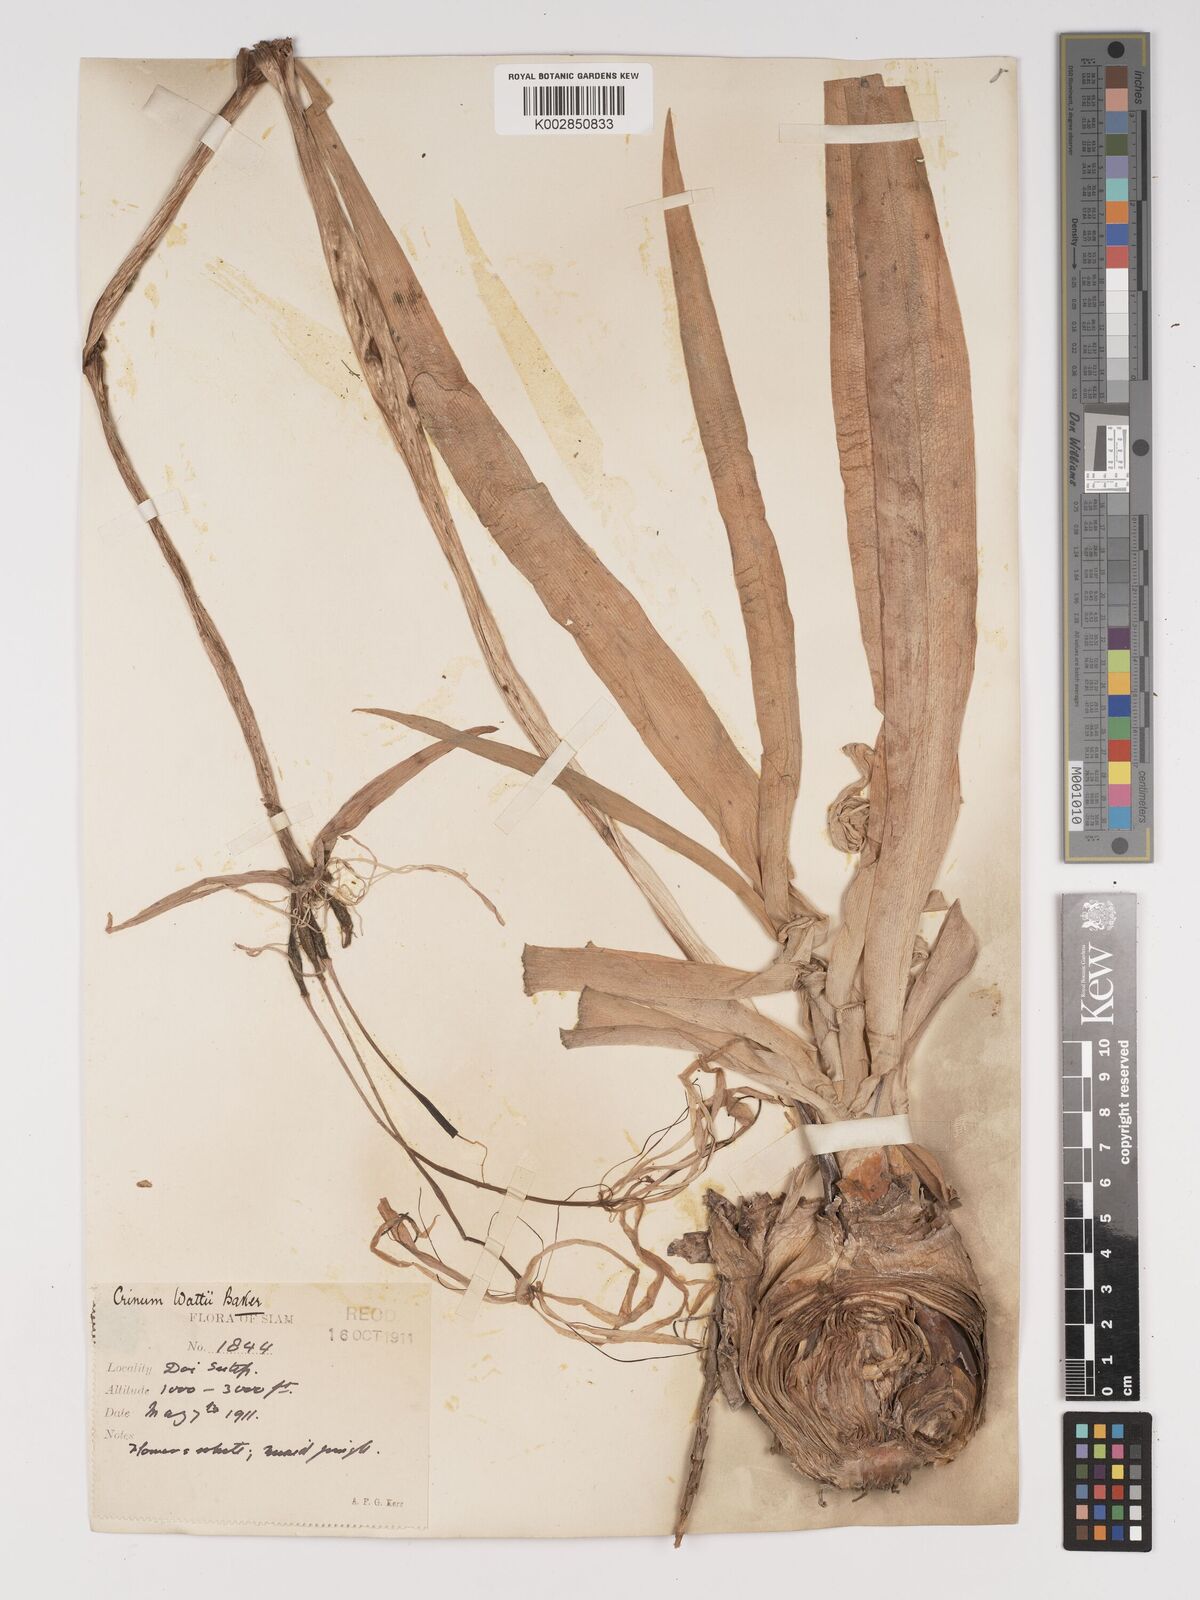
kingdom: Plantae
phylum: Tracheophyta
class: Liliopsida
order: Asparagales
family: Amaryllidaceae
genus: Crinum
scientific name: Crinum wattii
